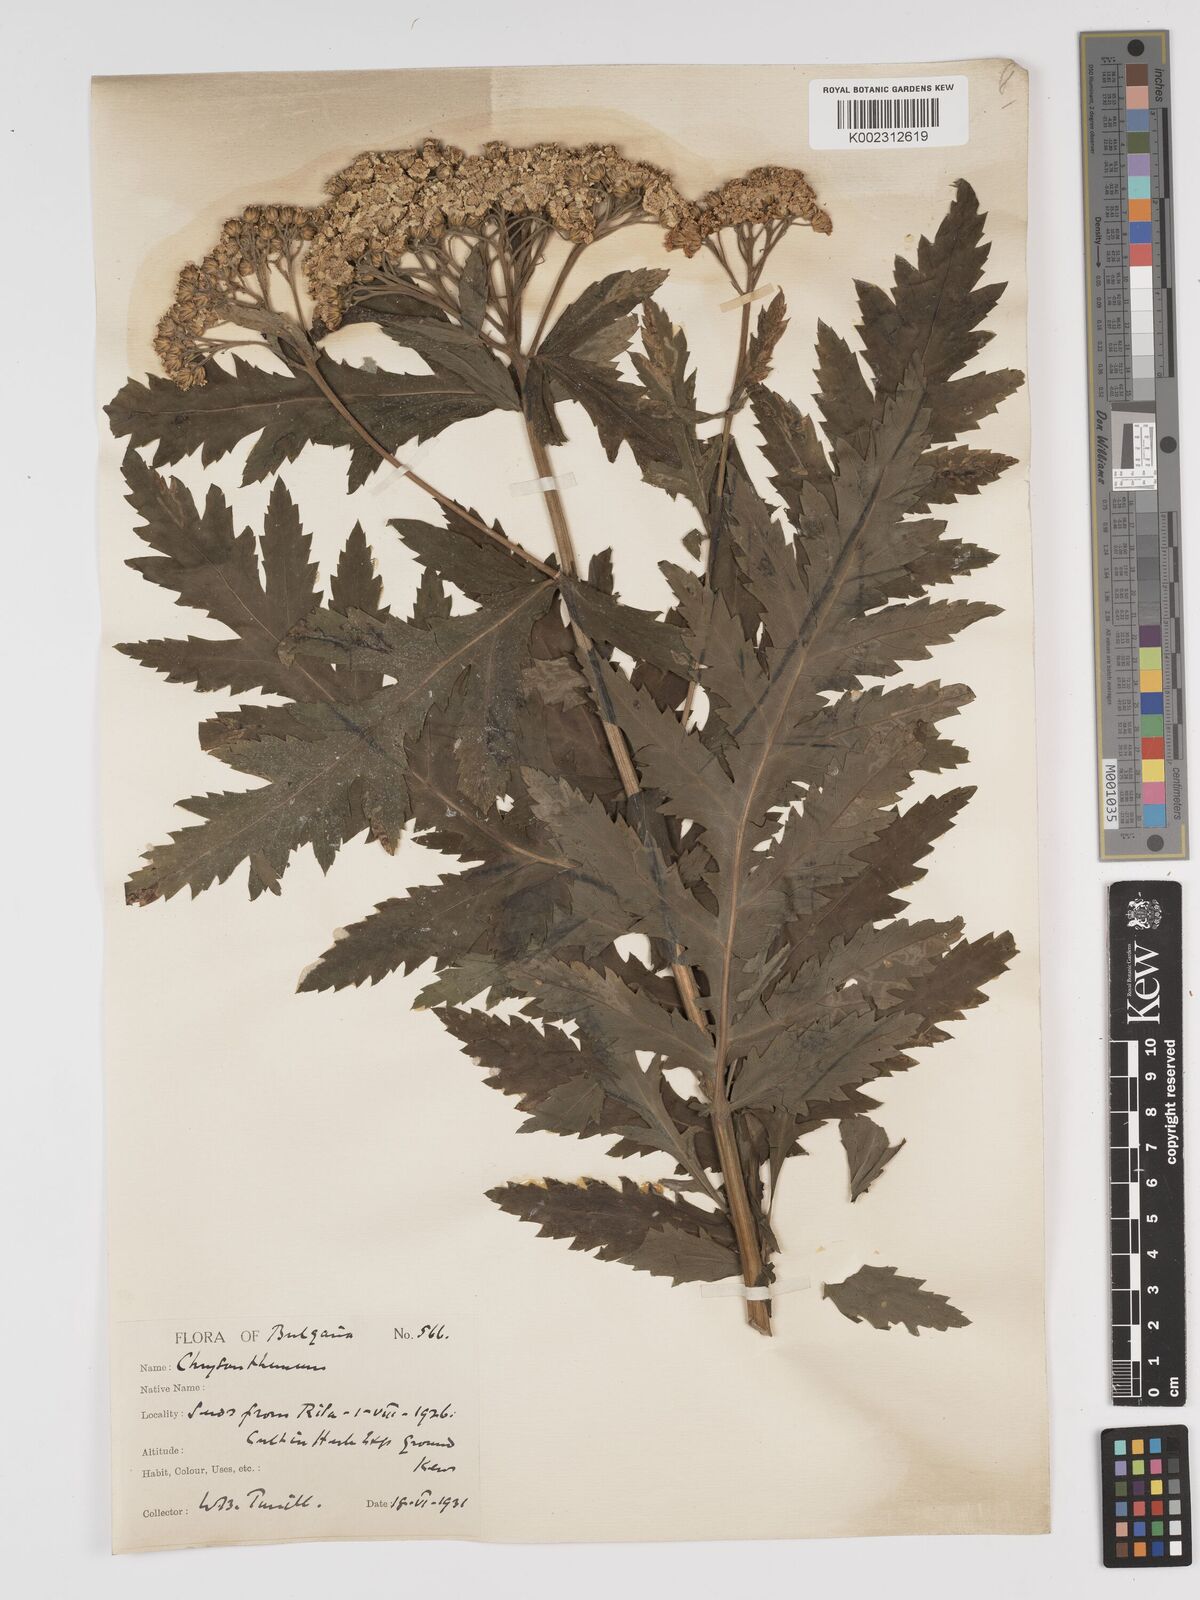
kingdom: Plantae
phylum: Tracheophyta
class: Magnoliopsida
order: Asterales
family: Asteraceae
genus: Tanacetum
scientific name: Tanacetum macrophyllum
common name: Rayed tansy
